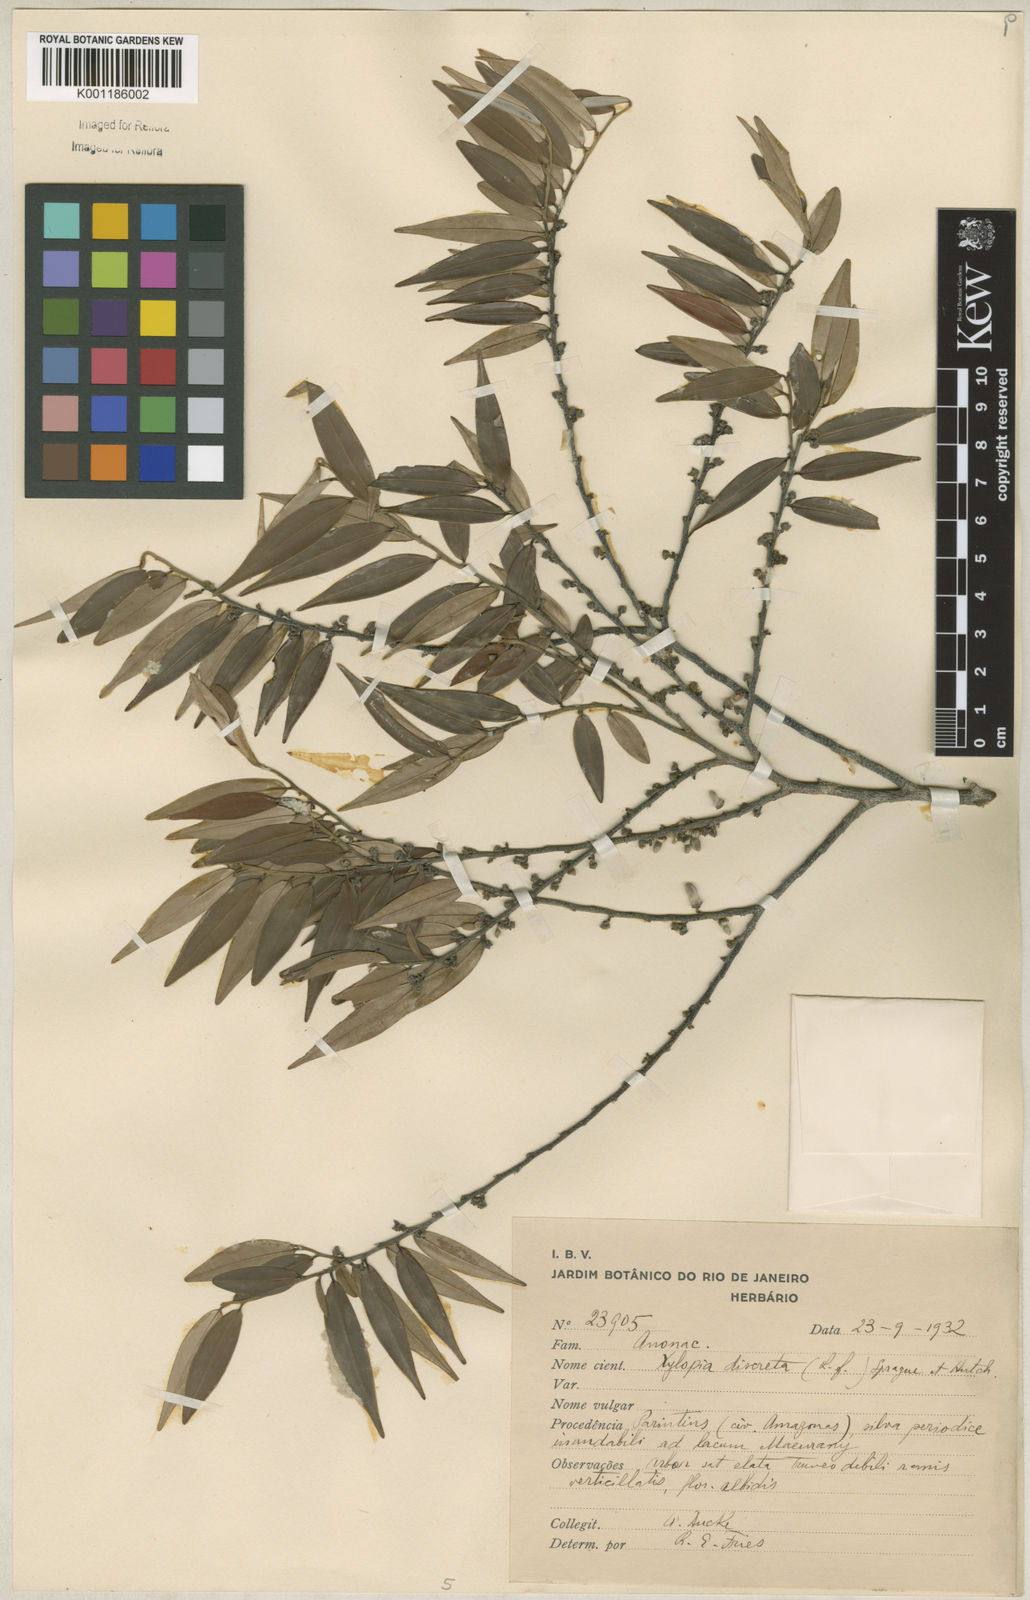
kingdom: Plantae
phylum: Tracheophyta
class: Magnoliopsida
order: Magnoliales
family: Annonaceae
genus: Xylopia
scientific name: Xylopia discreta
